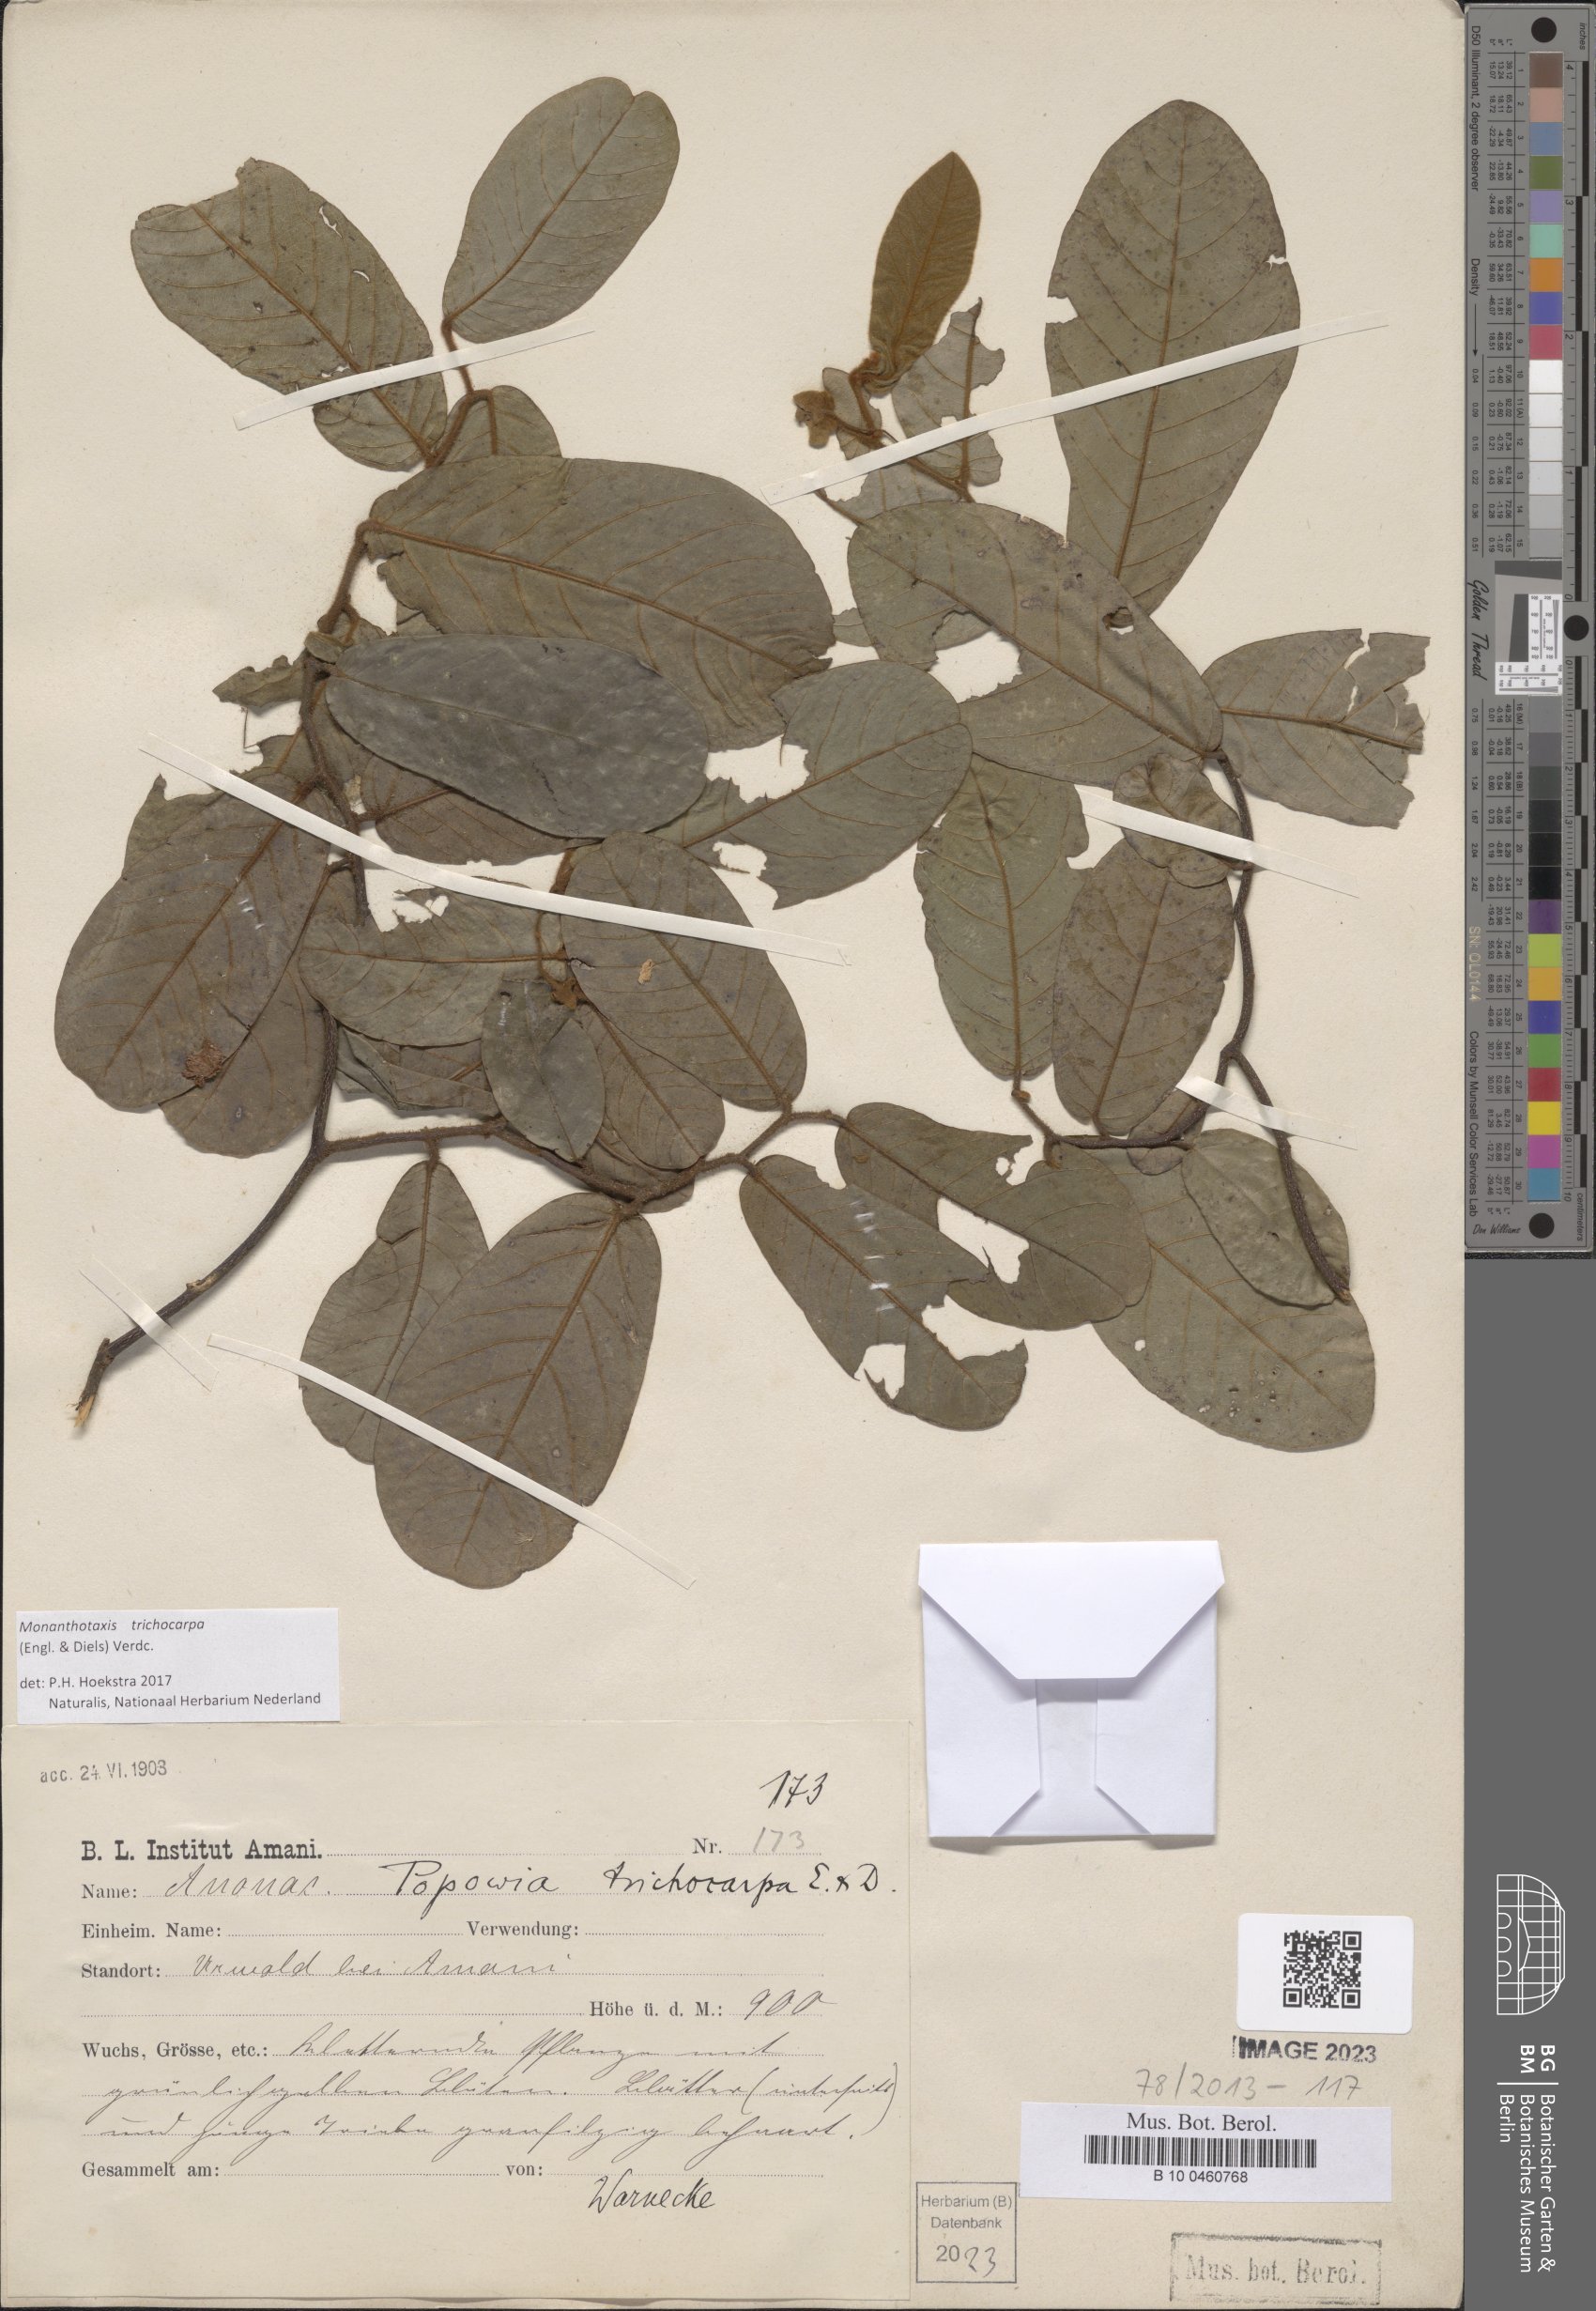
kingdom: Plantae
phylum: Tracheophyta
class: Magnoliopsida
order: Magnoliales
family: Annonaceae
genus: Monanthotaxis
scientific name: Monanthotaxis trichocarpa
